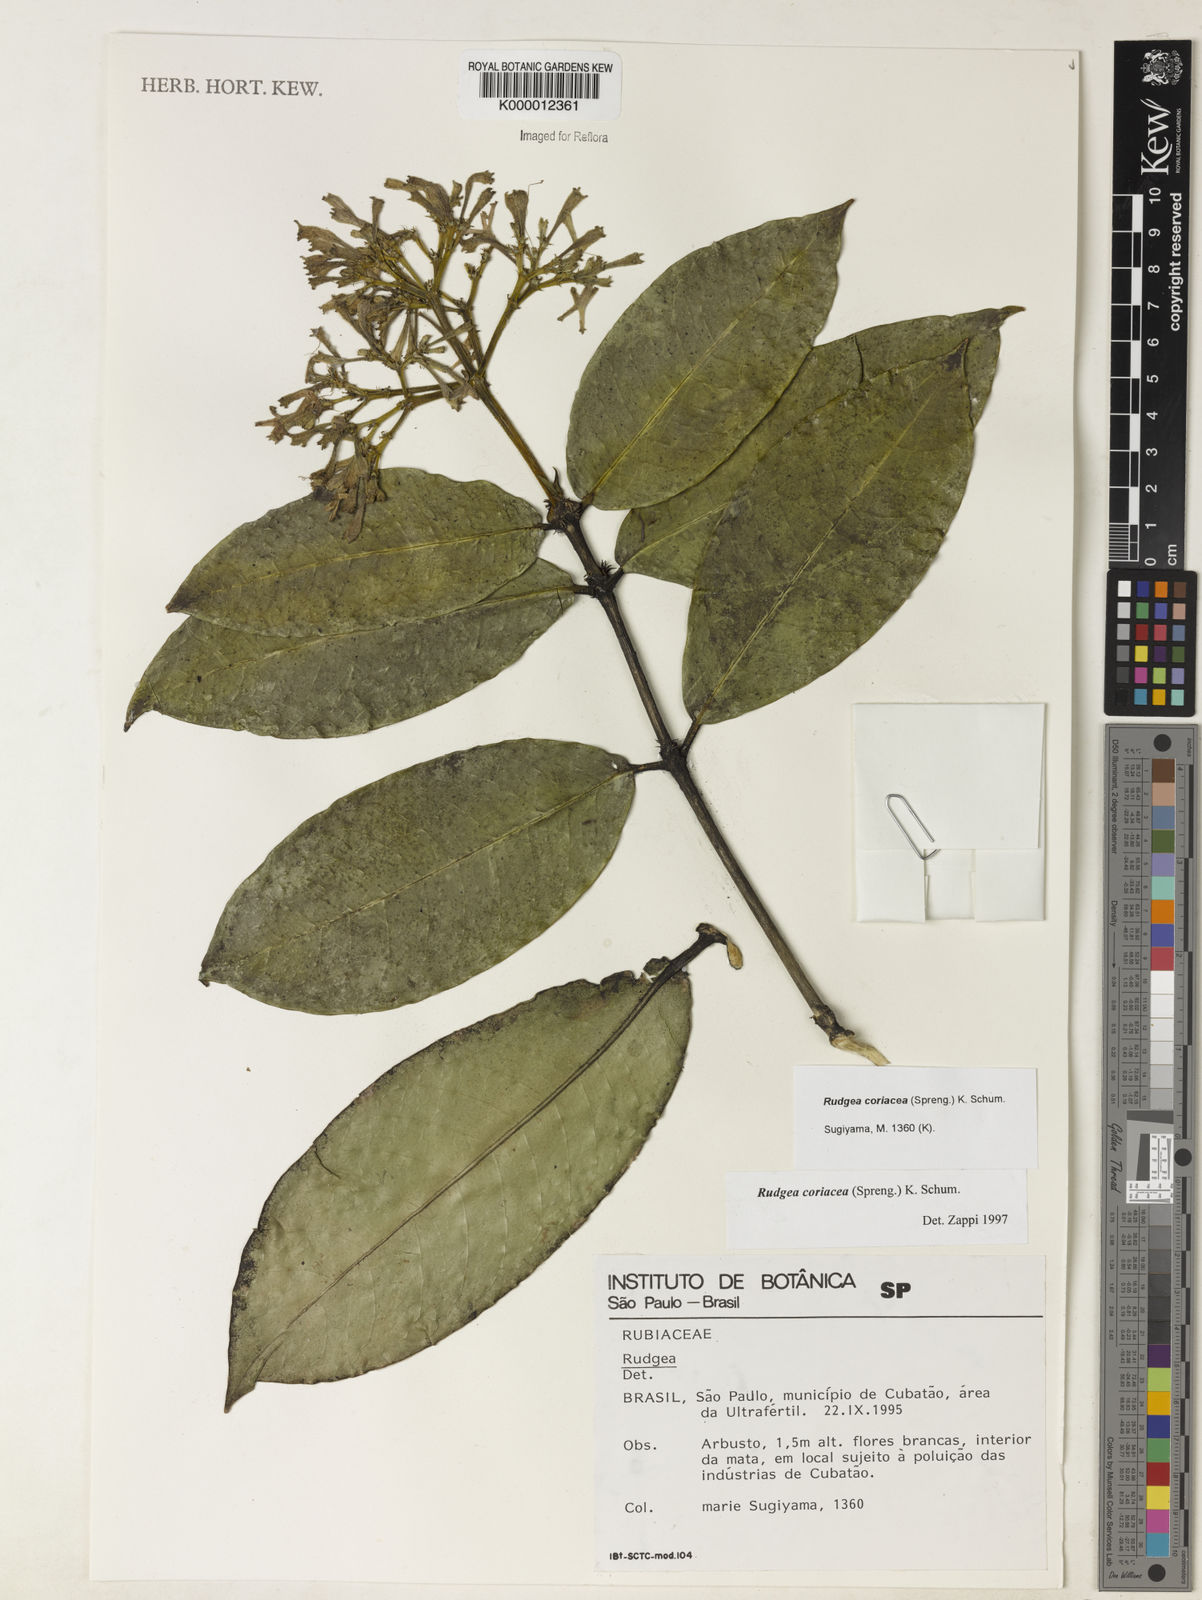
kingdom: Plantae
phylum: Tracheophyta
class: Magnoliopsida
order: Gentianales
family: Rubiaceae
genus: Rudgea
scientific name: Rudgea coriacea
